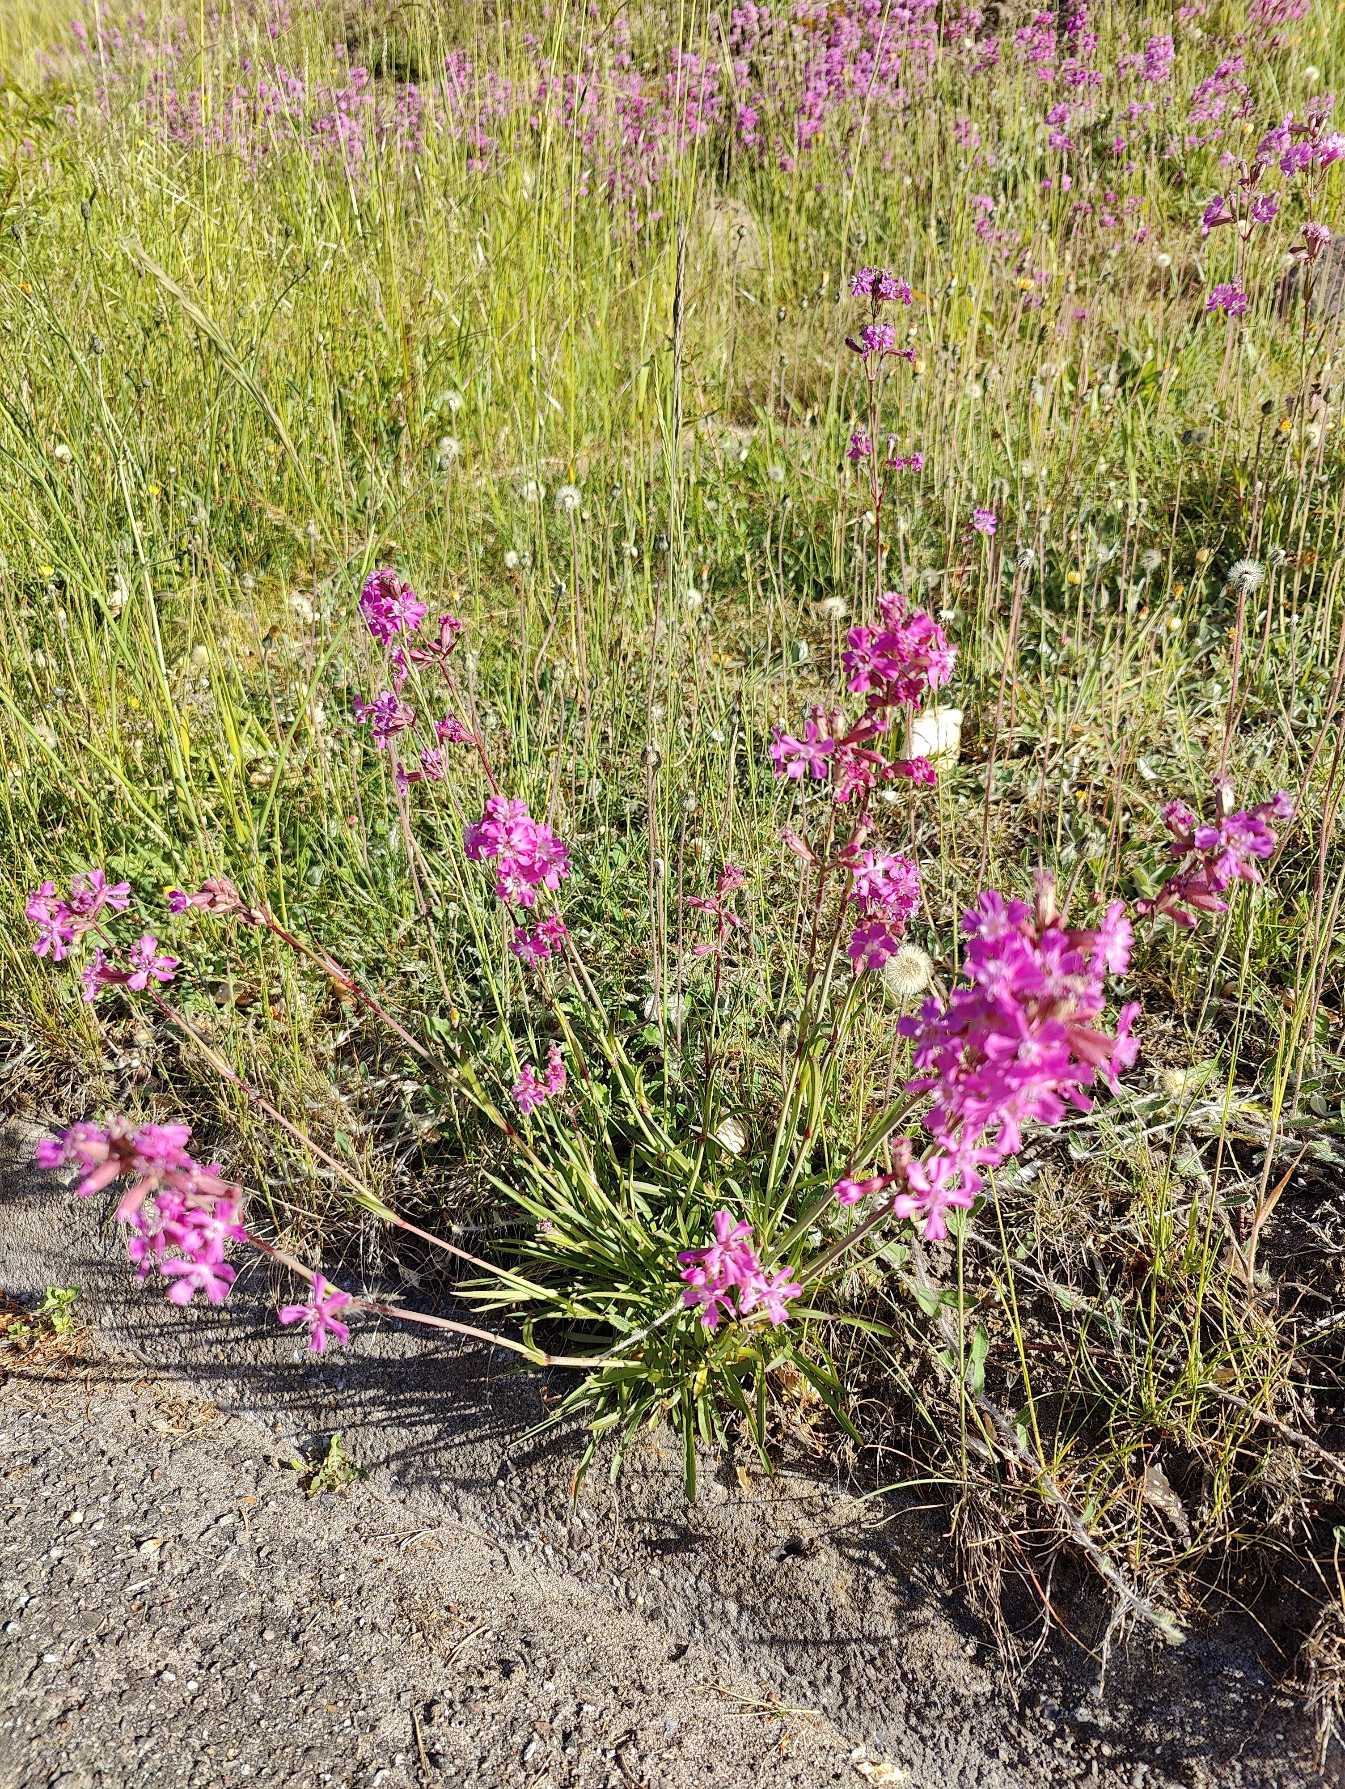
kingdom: Plantae
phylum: Tracheophyta
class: Magnoliopsida
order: Caryophyllales
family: Caryophyllaceae
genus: Viscaria
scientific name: Viscaria vulgaris
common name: Tjærenellike
